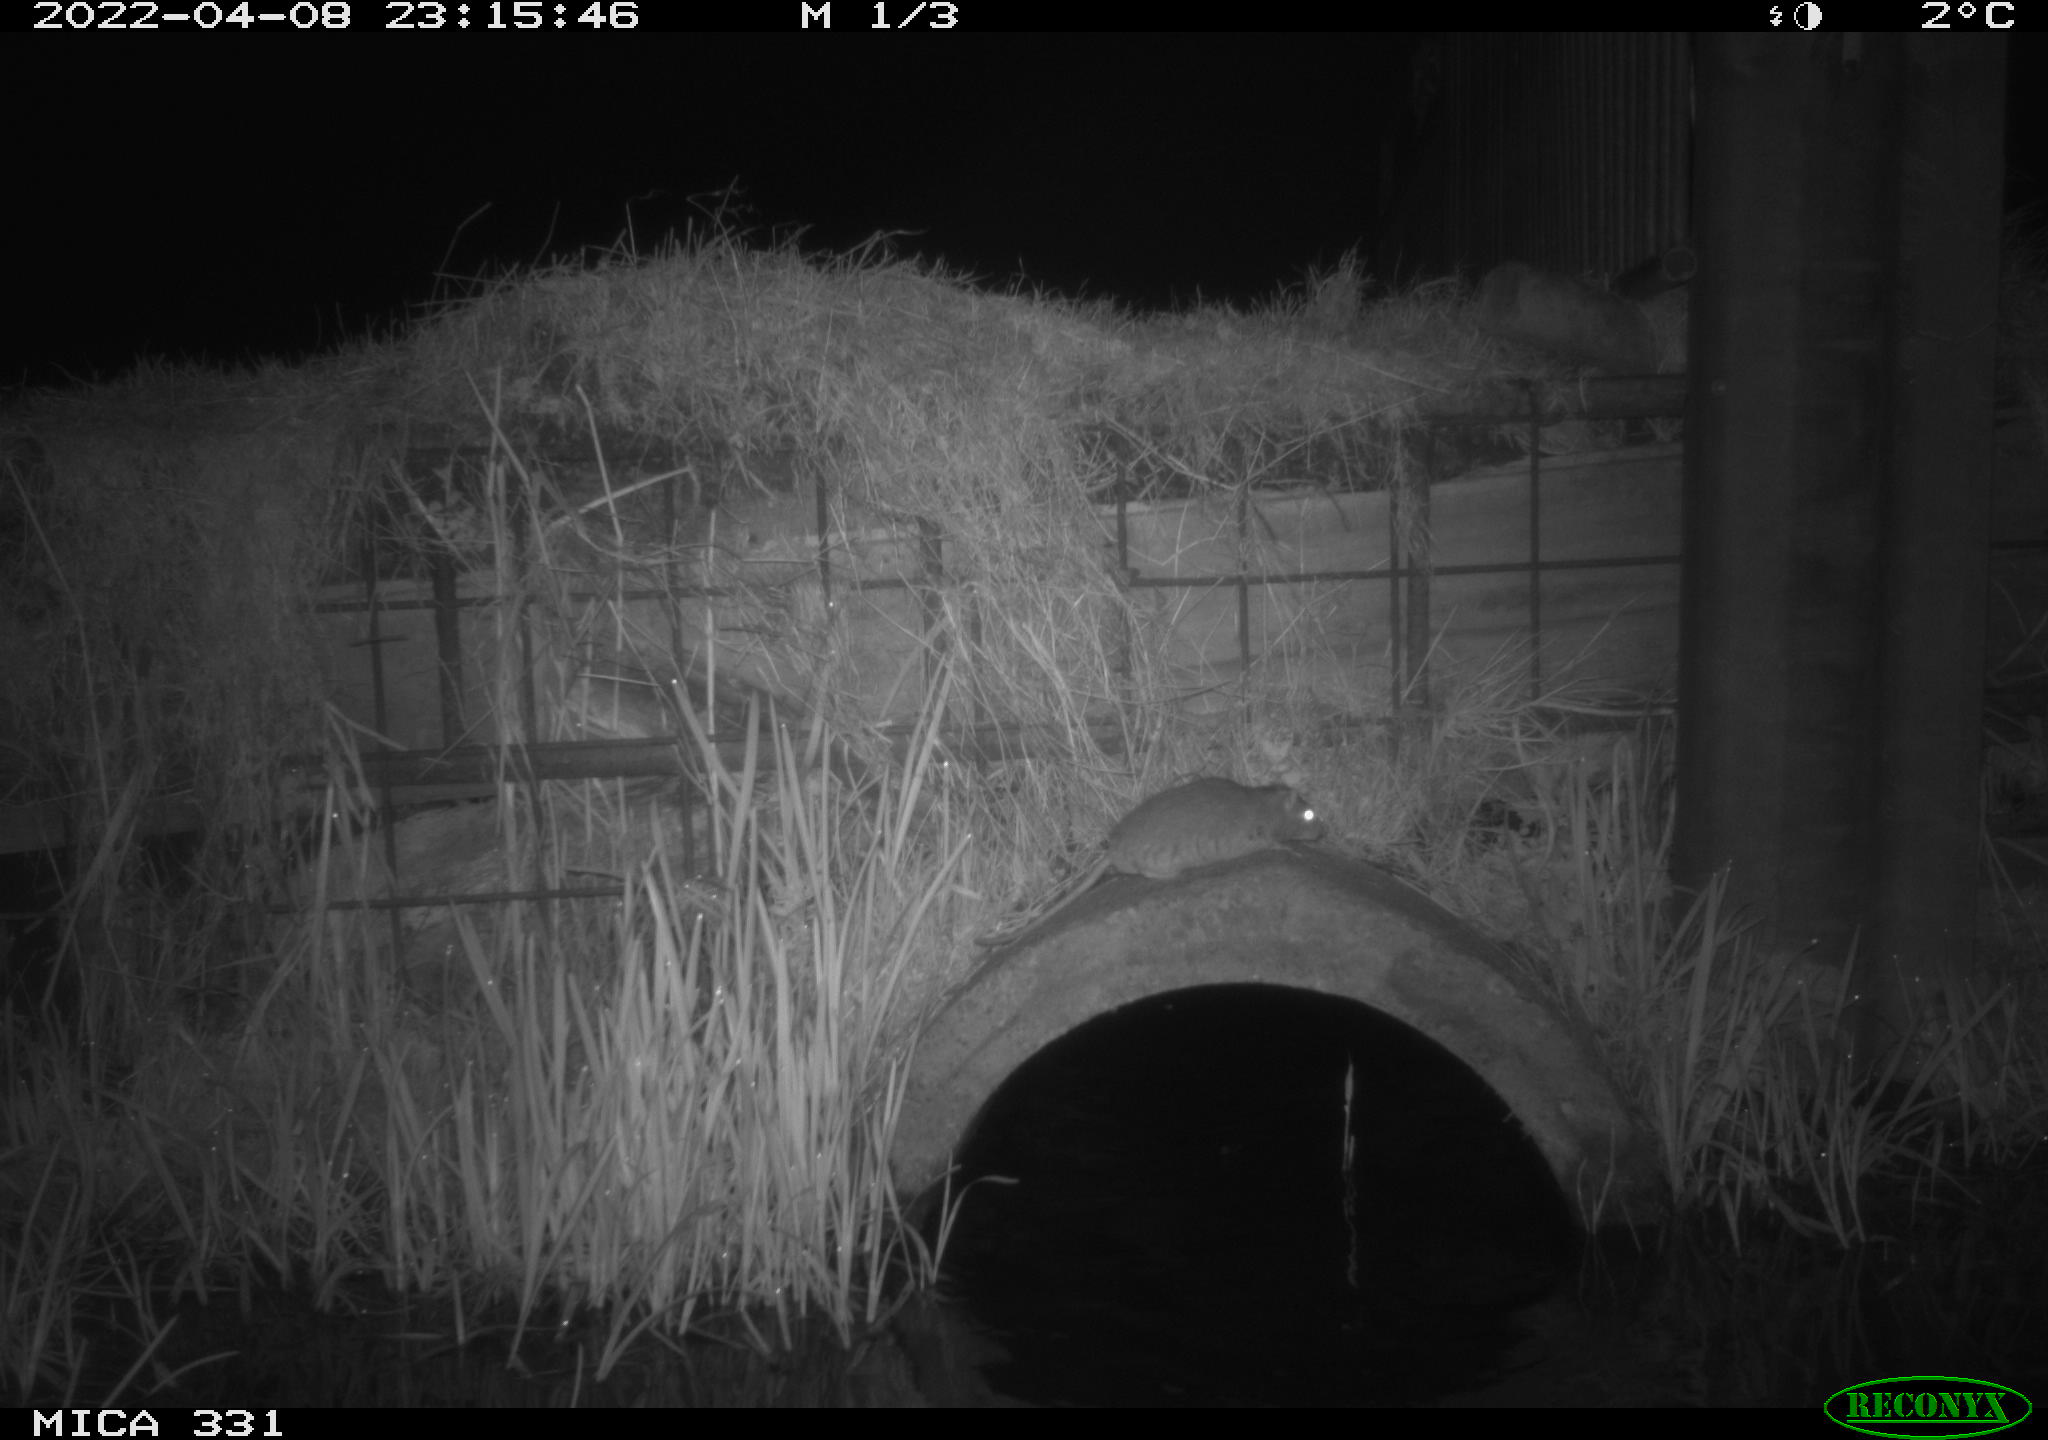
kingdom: Animalia
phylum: Chordata
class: Mammalia
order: Rodentia
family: Muridae
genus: Rattus
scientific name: Rattus norvegicus
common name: Brown rat
